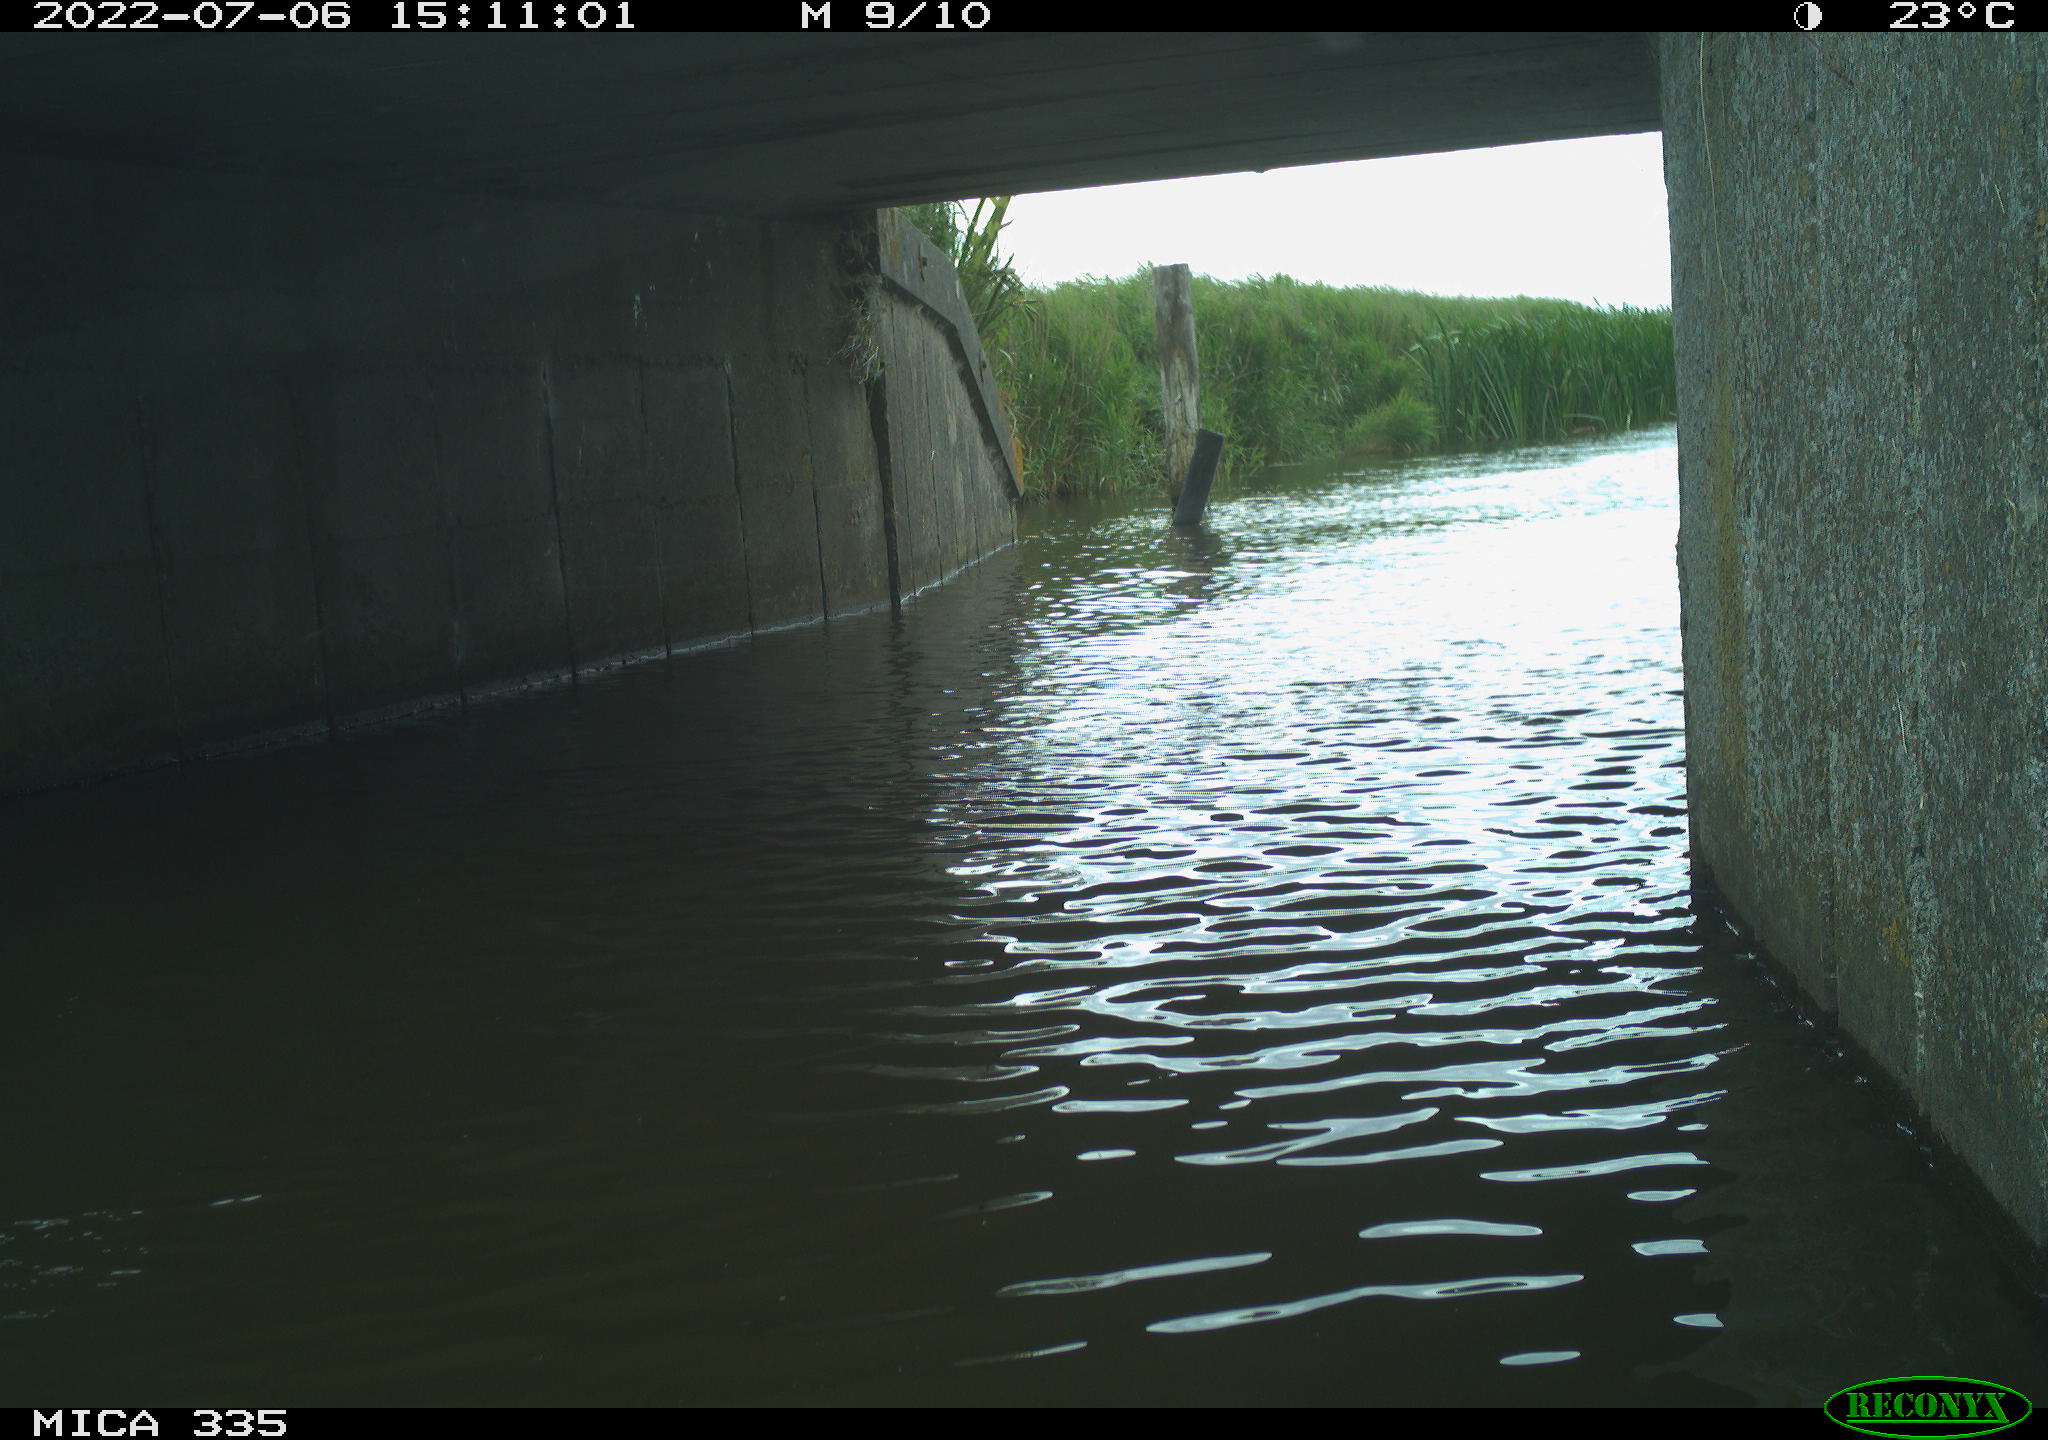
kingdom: Animalia
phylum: Chordata
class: Aves
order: Anseriformes
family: Anatidae
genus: Anas
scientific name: Anas platyrhynchos
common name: Mallard
